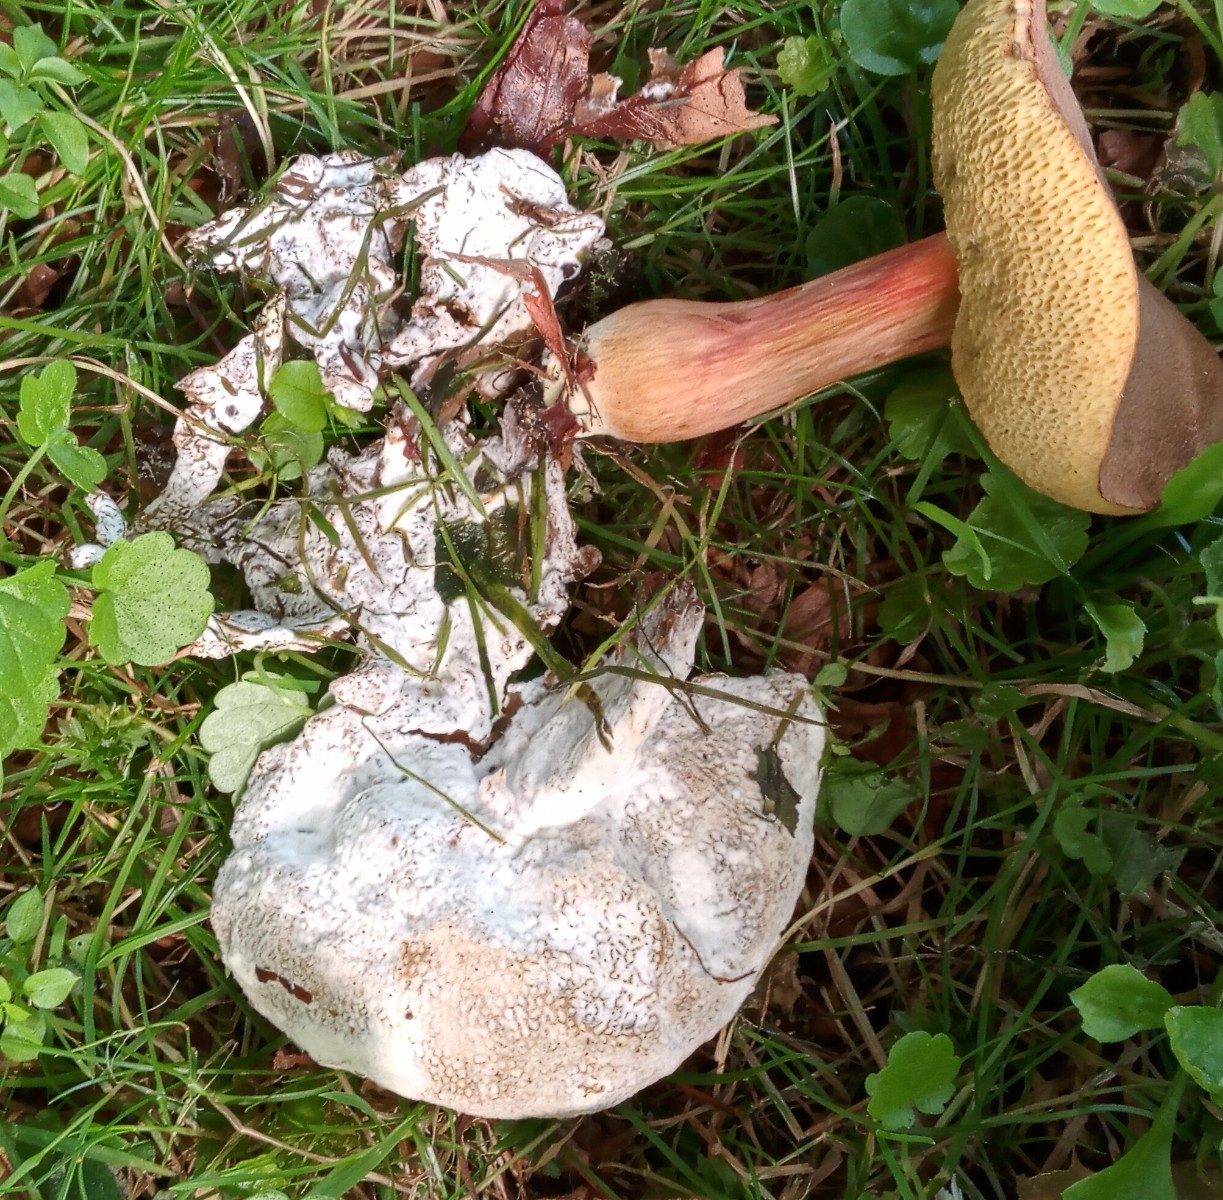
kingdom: Fungi
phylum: Ascomycota
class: Sordariomycetes
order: Hypocreales
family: Hypocreaceae
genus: Hypomyces
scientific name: Hypomyces microspermus
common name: dværgrørhat-snylteskorpe
